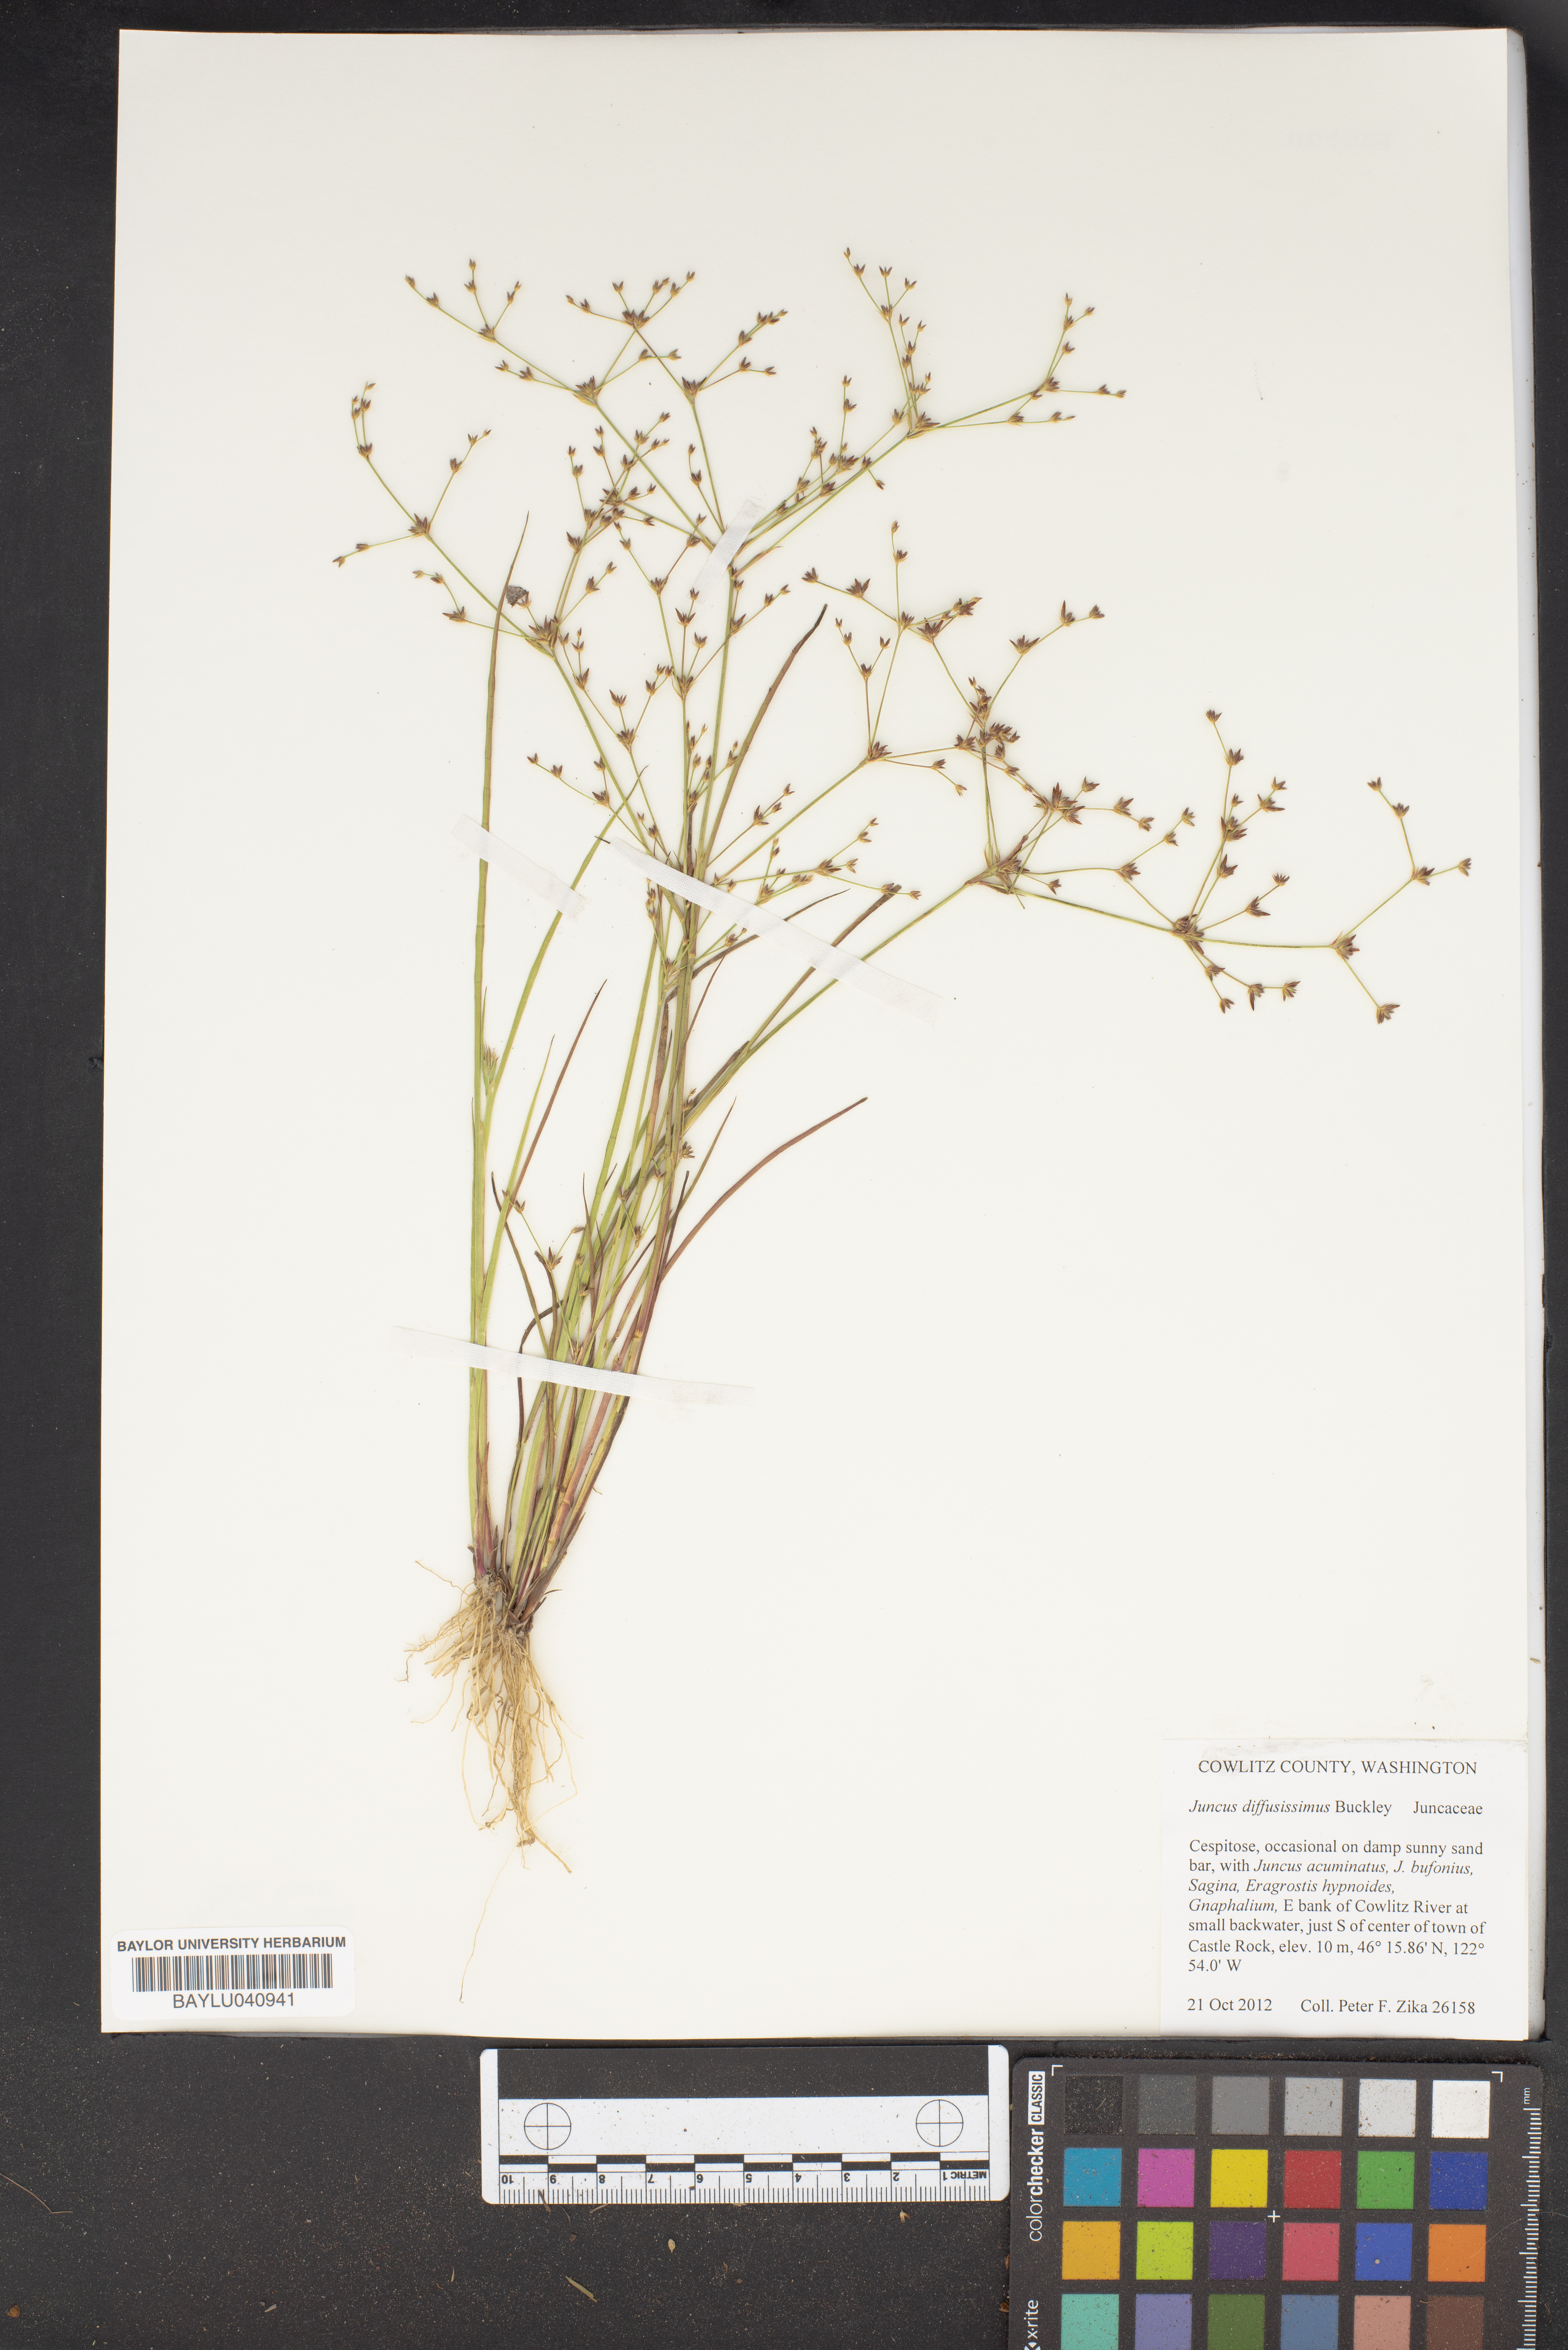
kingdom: Plantae
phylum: Tracheophyta
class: Liliopsida
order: Poales
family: Juncaceae
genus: Juncus
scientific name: Juncus diffusissimus
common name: Slimpod rush
